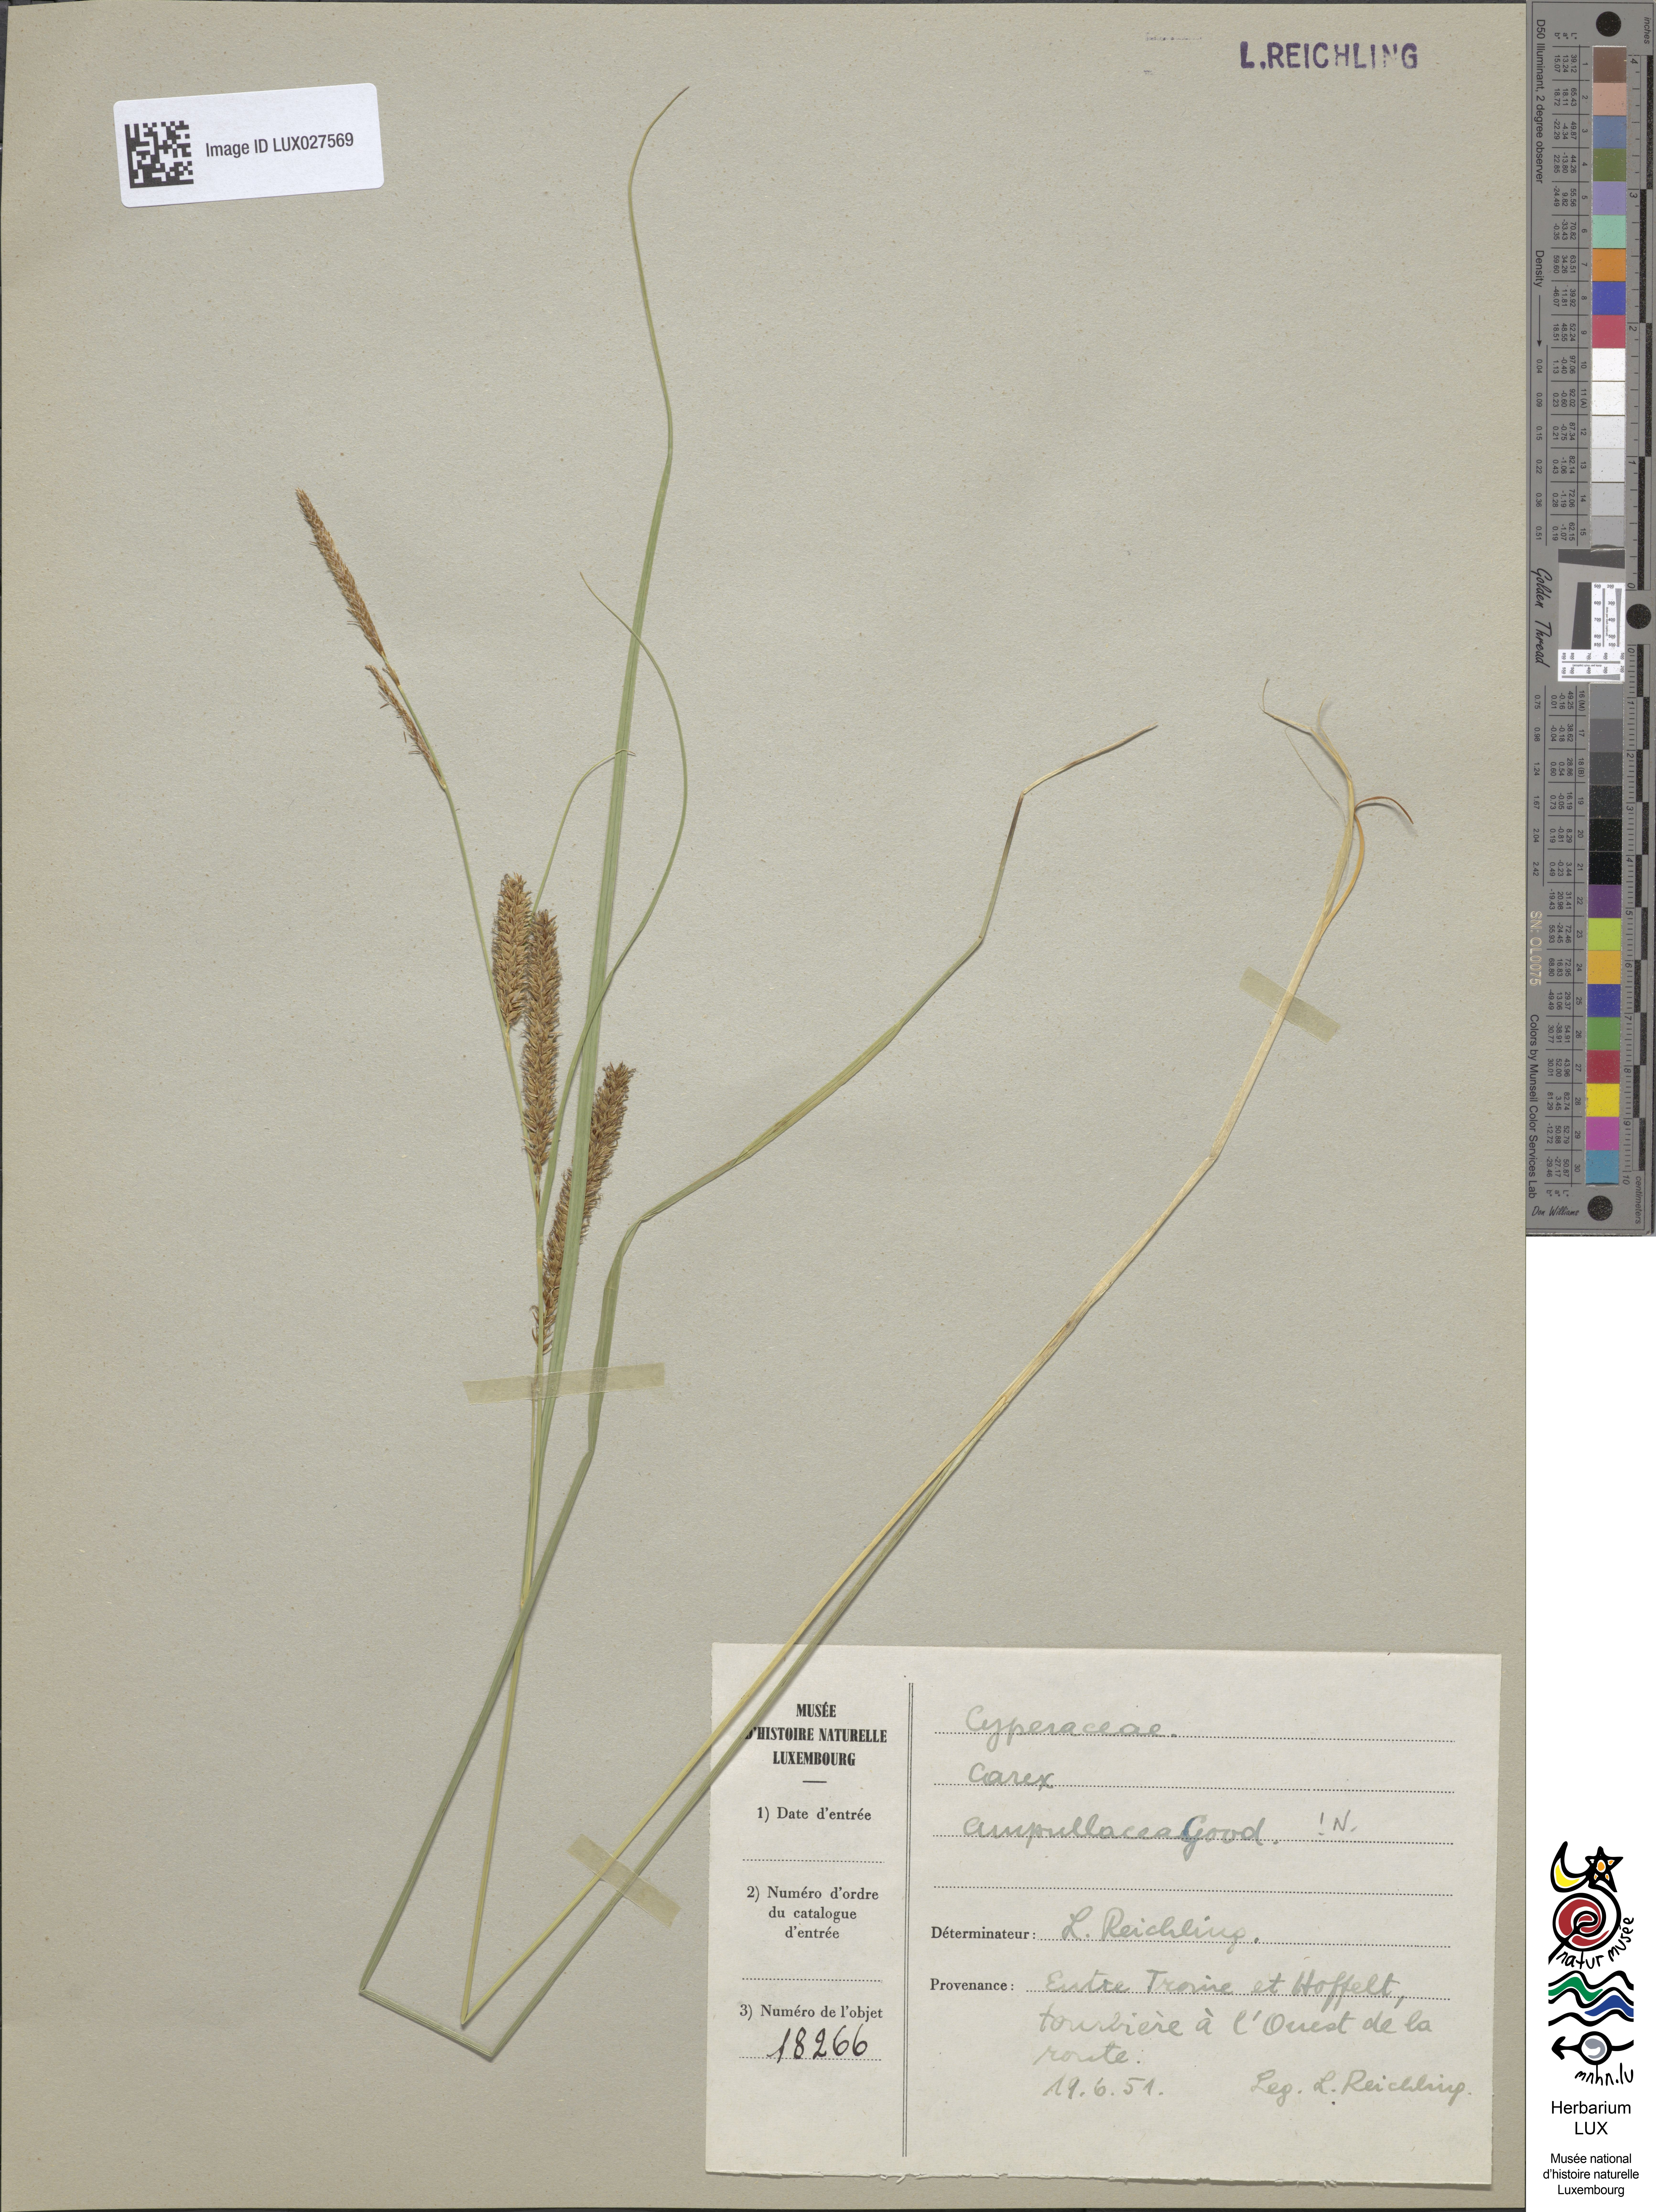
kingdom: Plantae
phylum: Tracheophyta
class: Liliopsida
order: Poales
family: Cyperaceae
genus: Carex
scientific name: Carex rostrata
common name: Bottle sedge
